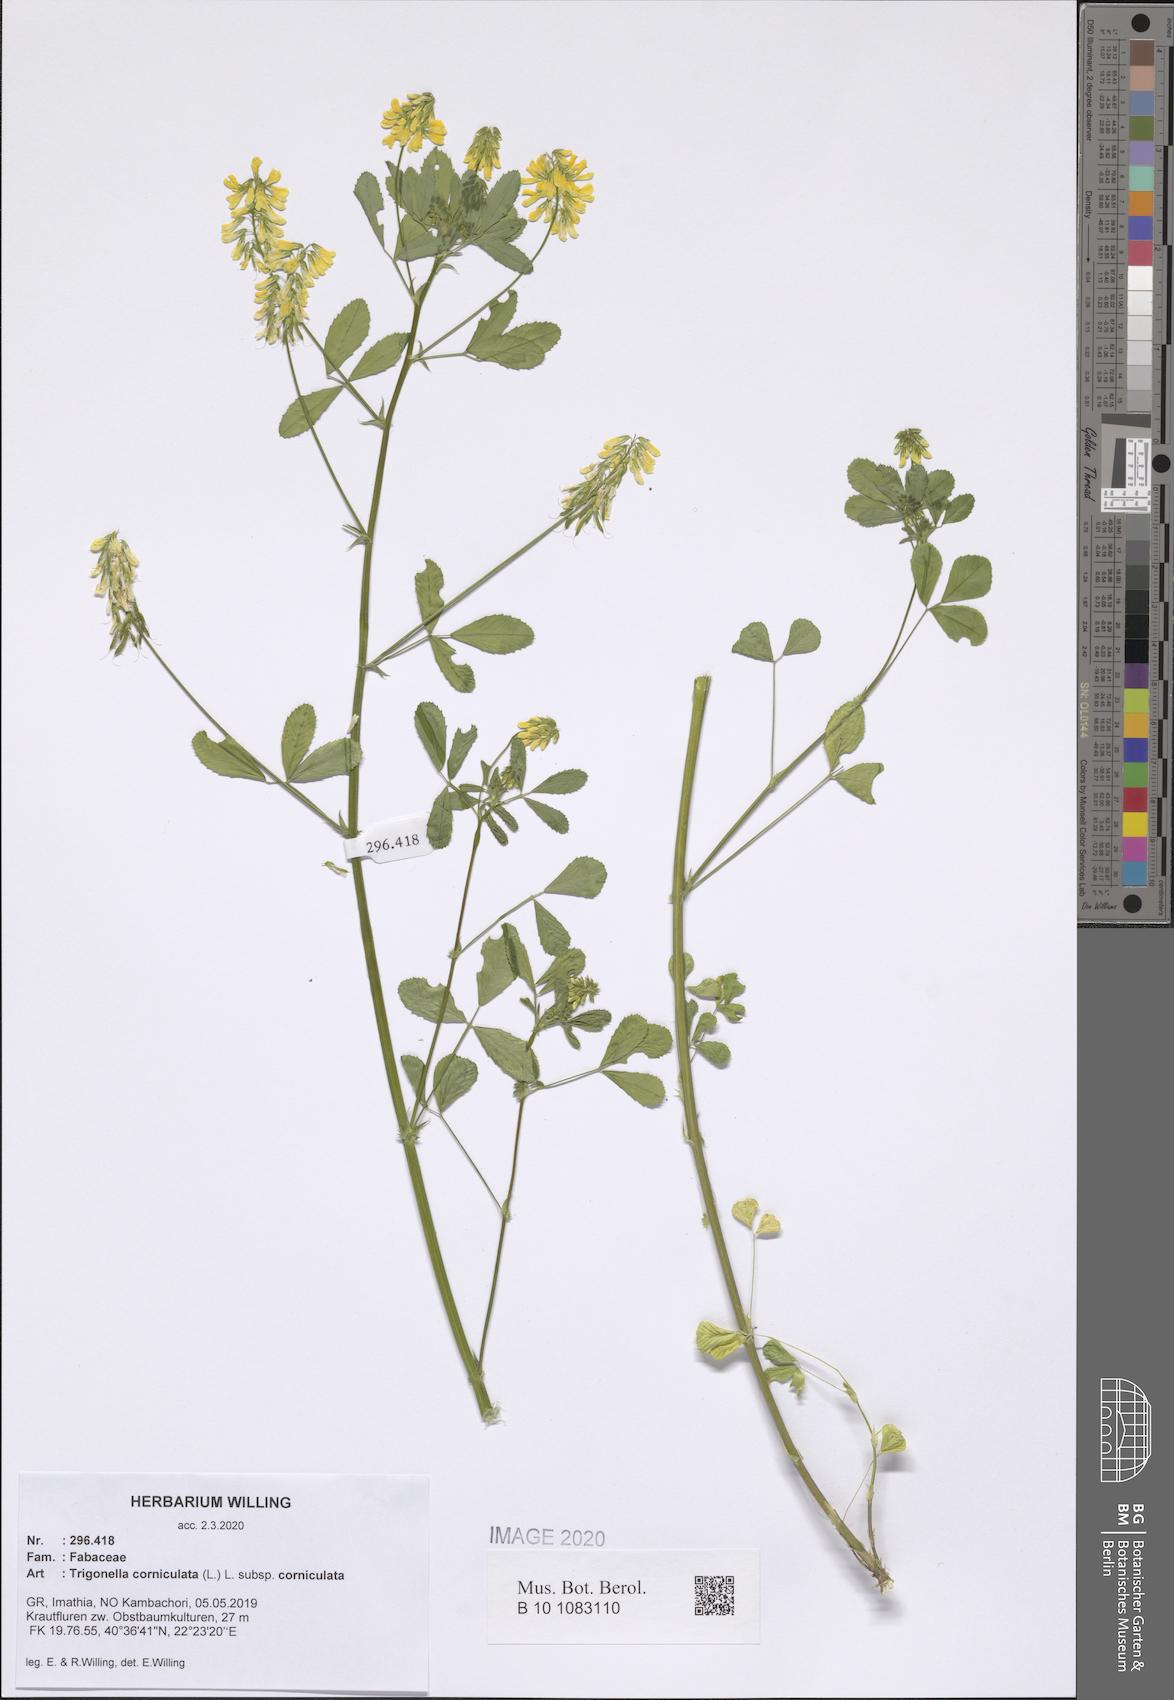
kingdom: Plantae
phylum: Tracheophyta
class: Magnoliopsida
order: Fabales
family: Fabaceae
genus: Trigonella
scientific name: Trigonella corniculata
